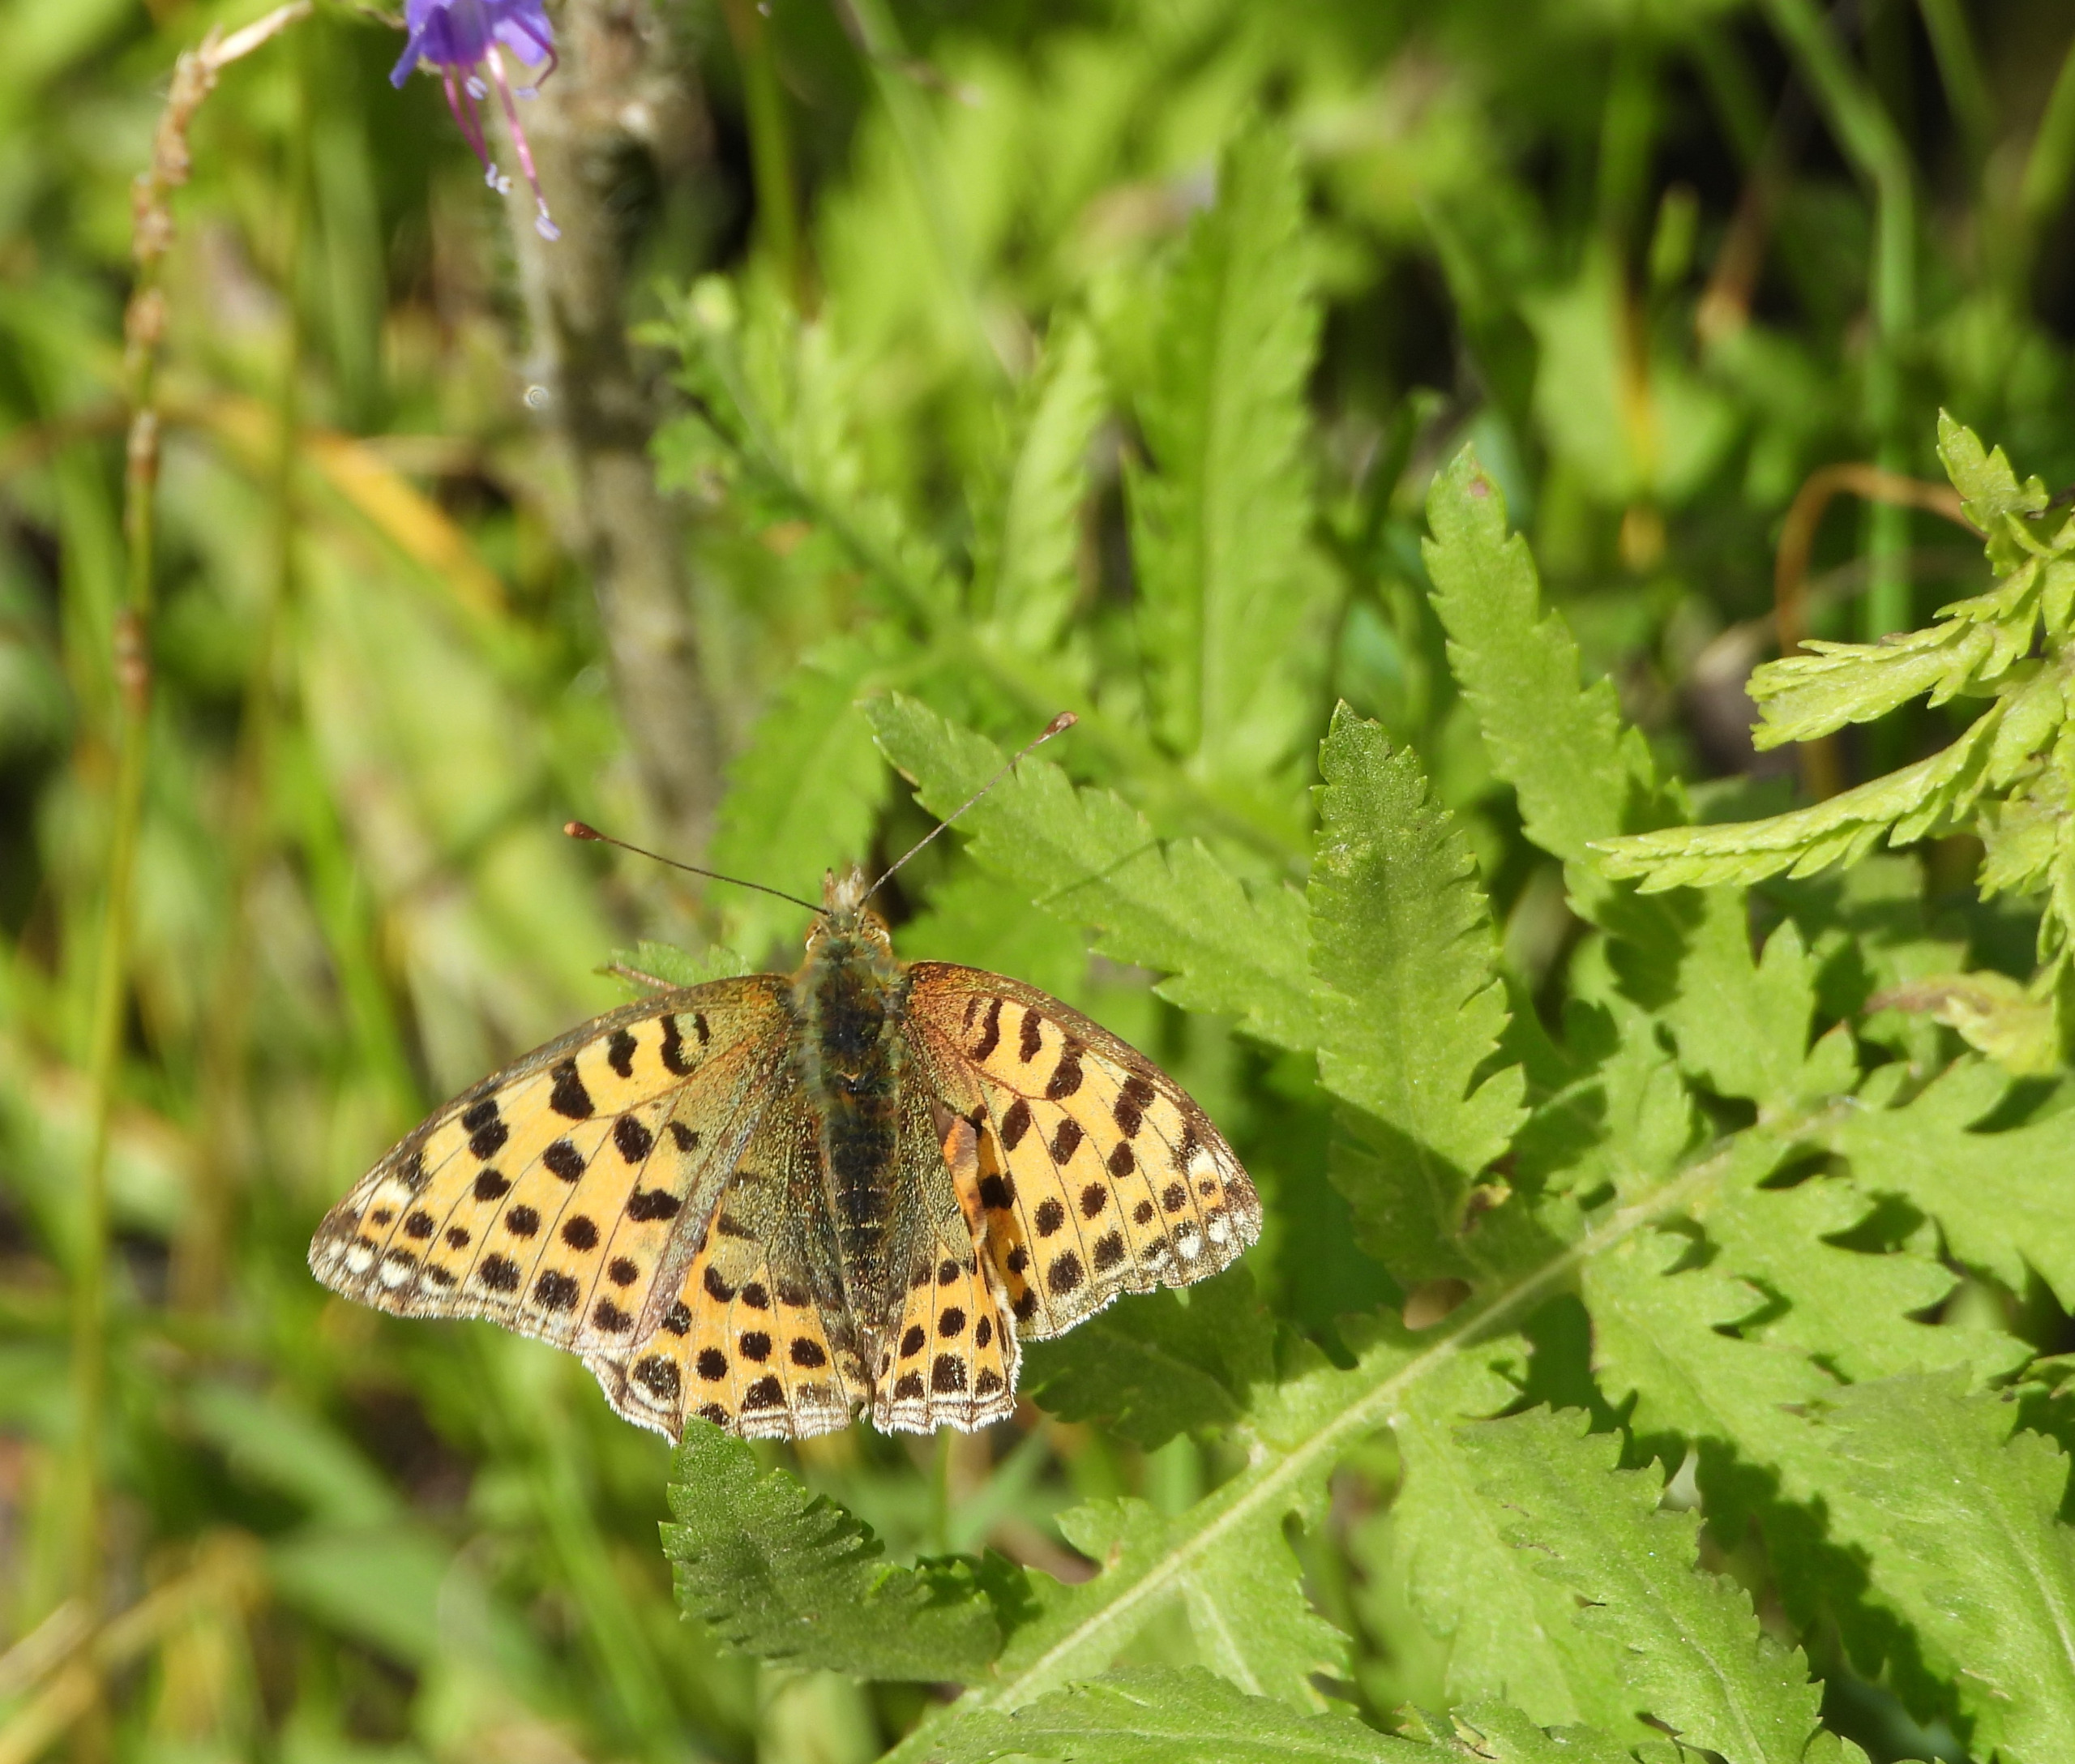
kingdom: Animalia
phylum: Arthropoda
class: Insecta
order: Lepidoptera
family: Nymphalidae
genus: Issoria
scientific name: Issoria lathonia
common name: Storplettet perlemorsommerfugl
